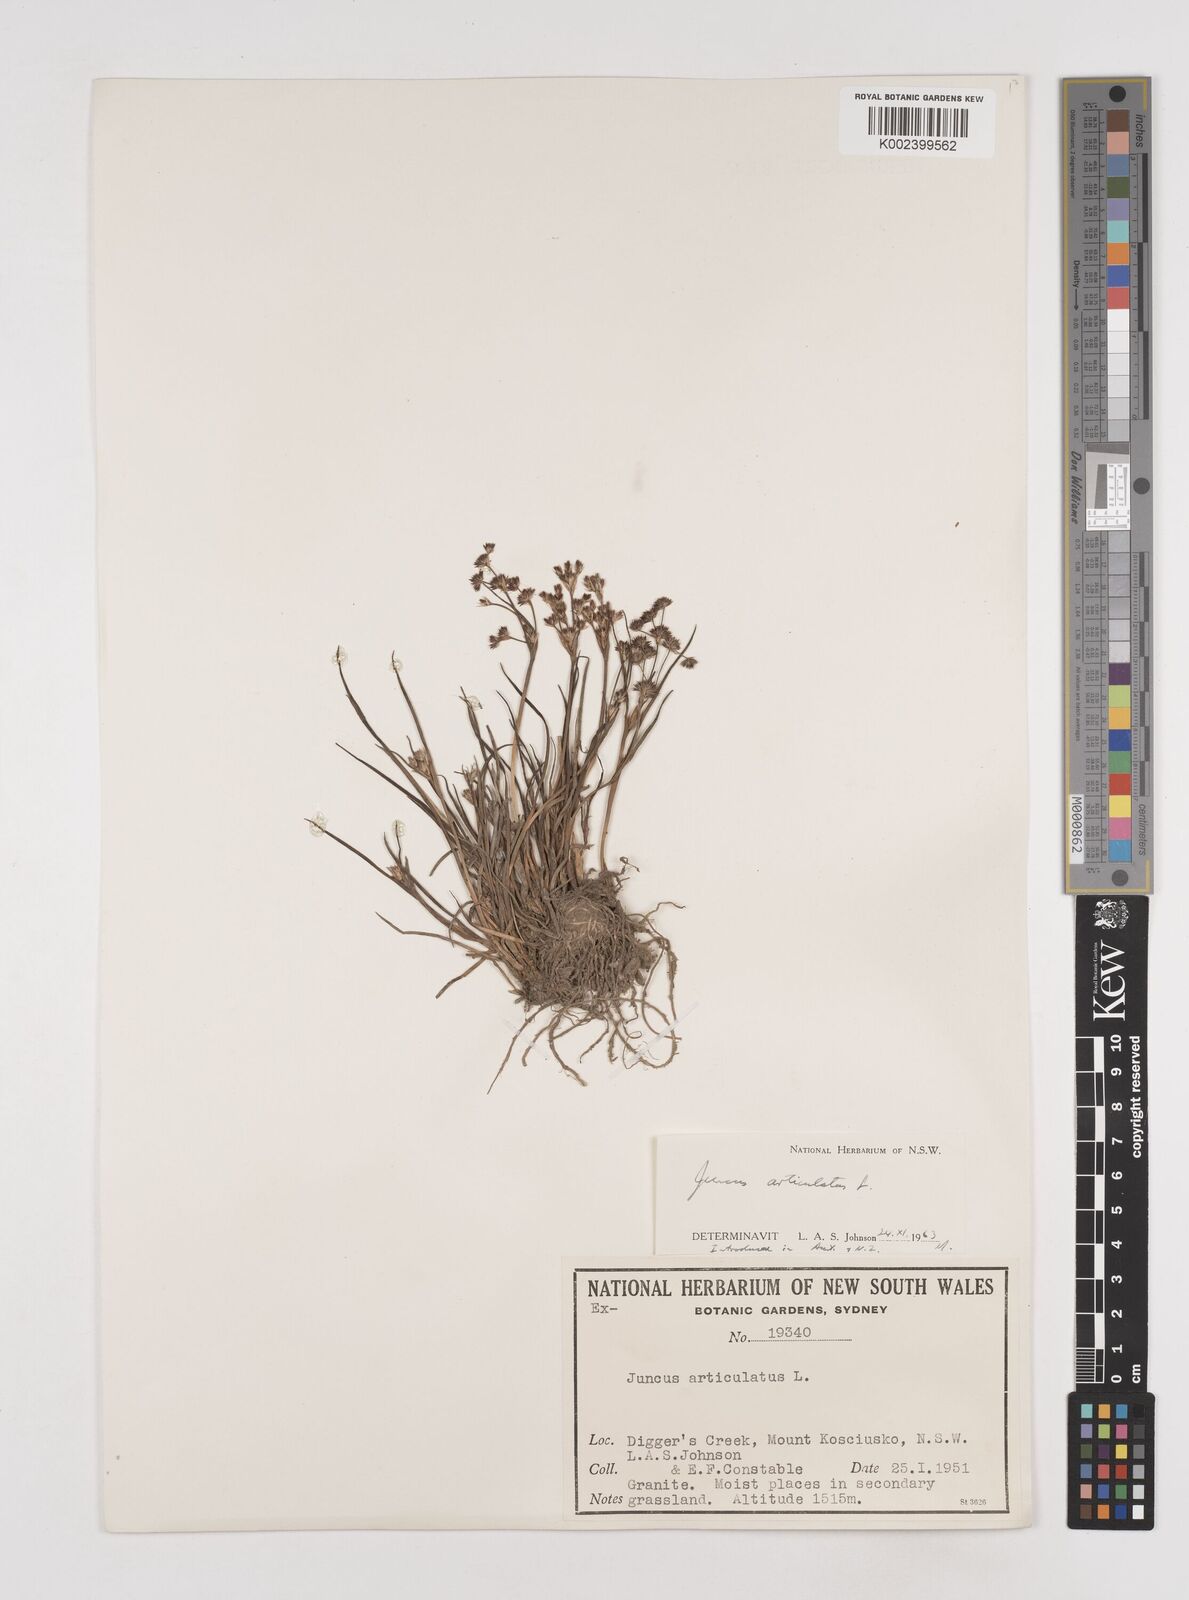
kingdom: Plantae
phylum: Tracheophyta
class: Liliopsida
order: Poales
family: Juncaceae
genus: Juncus
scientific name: Juncus articulatus
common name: Jointed rush
